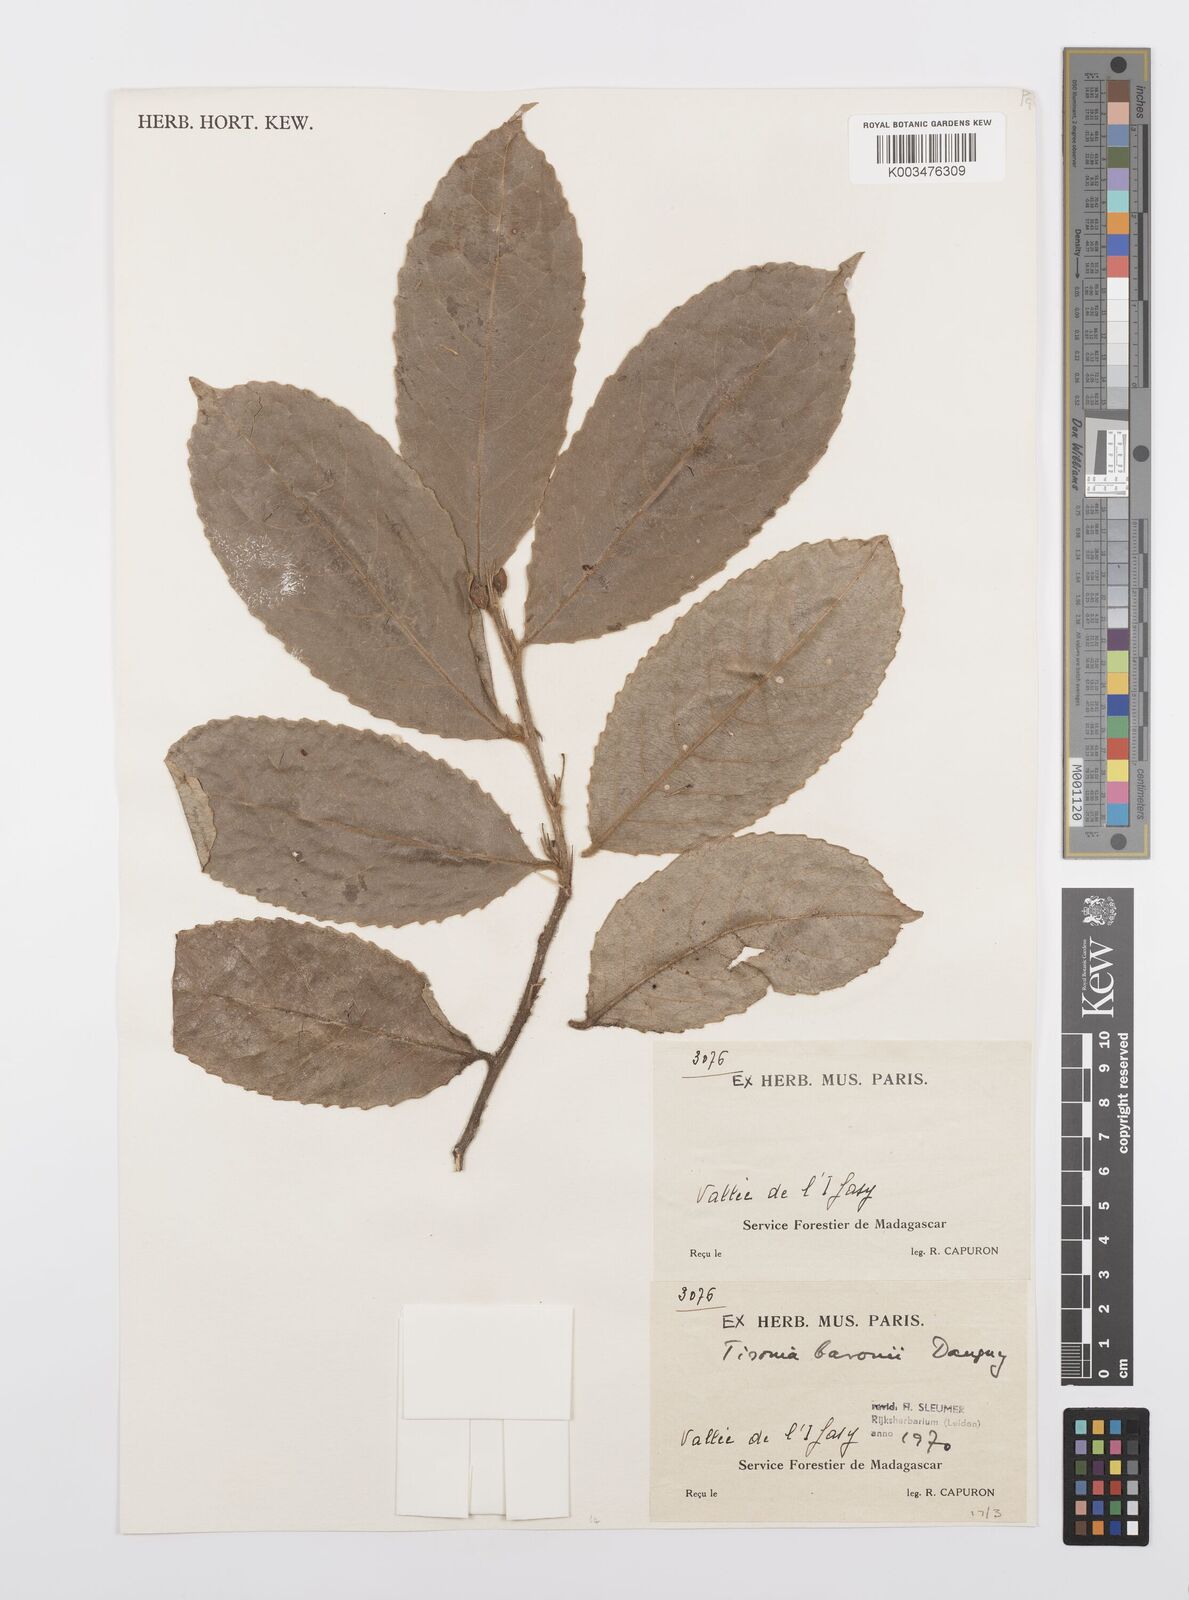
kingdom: Plantae
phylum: Tracheophyta
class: Magnoliopsida
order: Malpighiales
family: Salicaceae
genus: Tisonia
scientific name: Tisonia baronii
